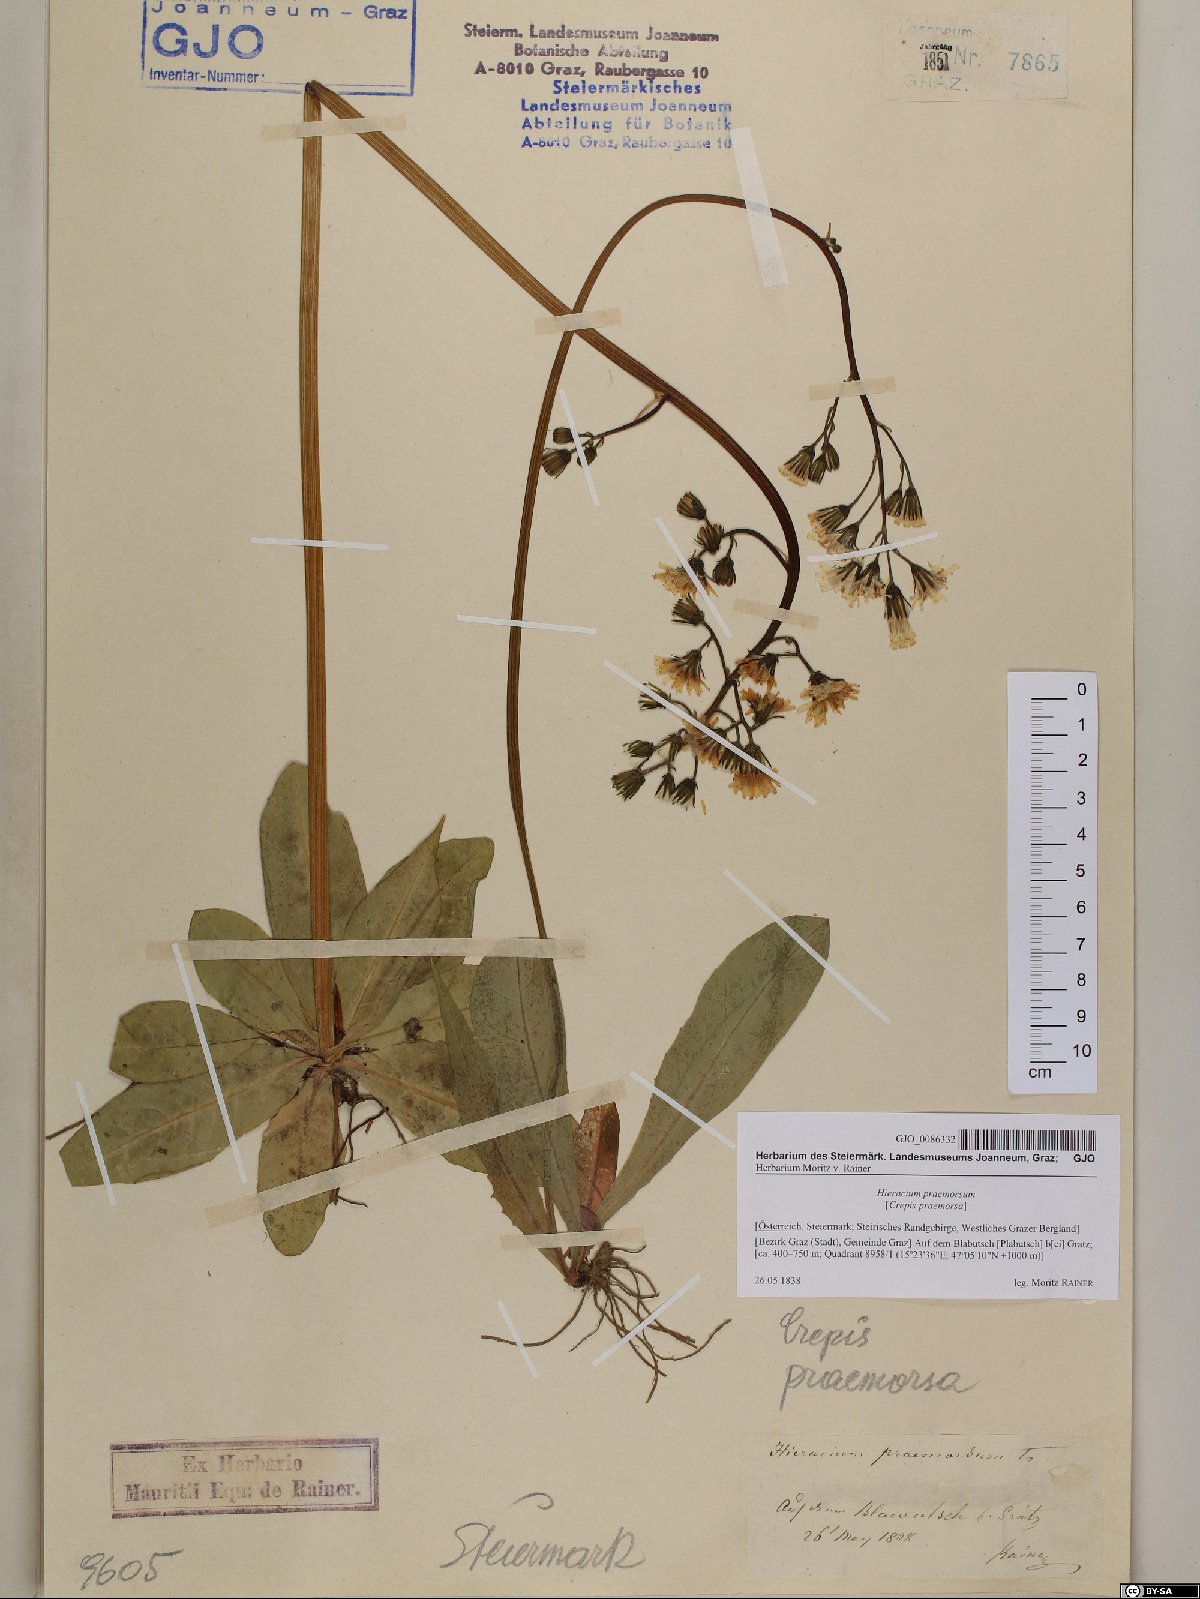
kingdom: Plantae
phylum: Tracheophyta
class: Magnoliopsida
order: Asterales
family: Asteraceae
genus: Crepis
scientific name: Crepis praemorsa
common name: Leafless hawk's-beard
